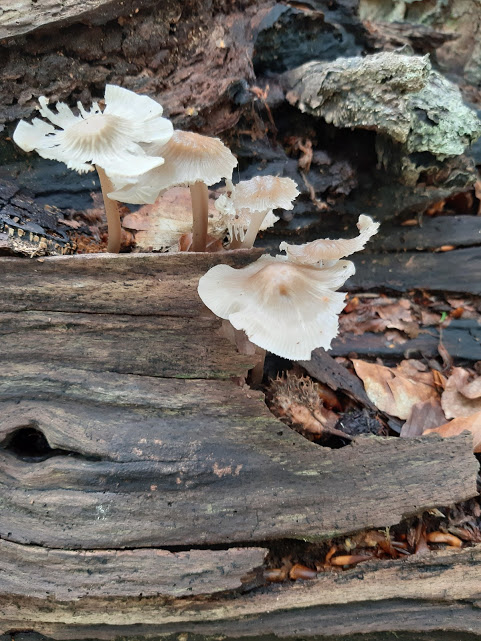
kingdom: Fungi
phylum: Basidiomycota
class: Agaricomycetes
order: Agaricales
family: Mycenaceae
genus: Mycena
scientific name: Mycena galericulata
